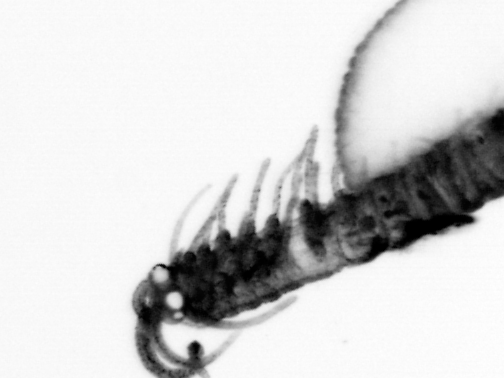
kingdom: Animalia
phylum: Annelida
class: Polychaeta
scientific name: Polychaeta
